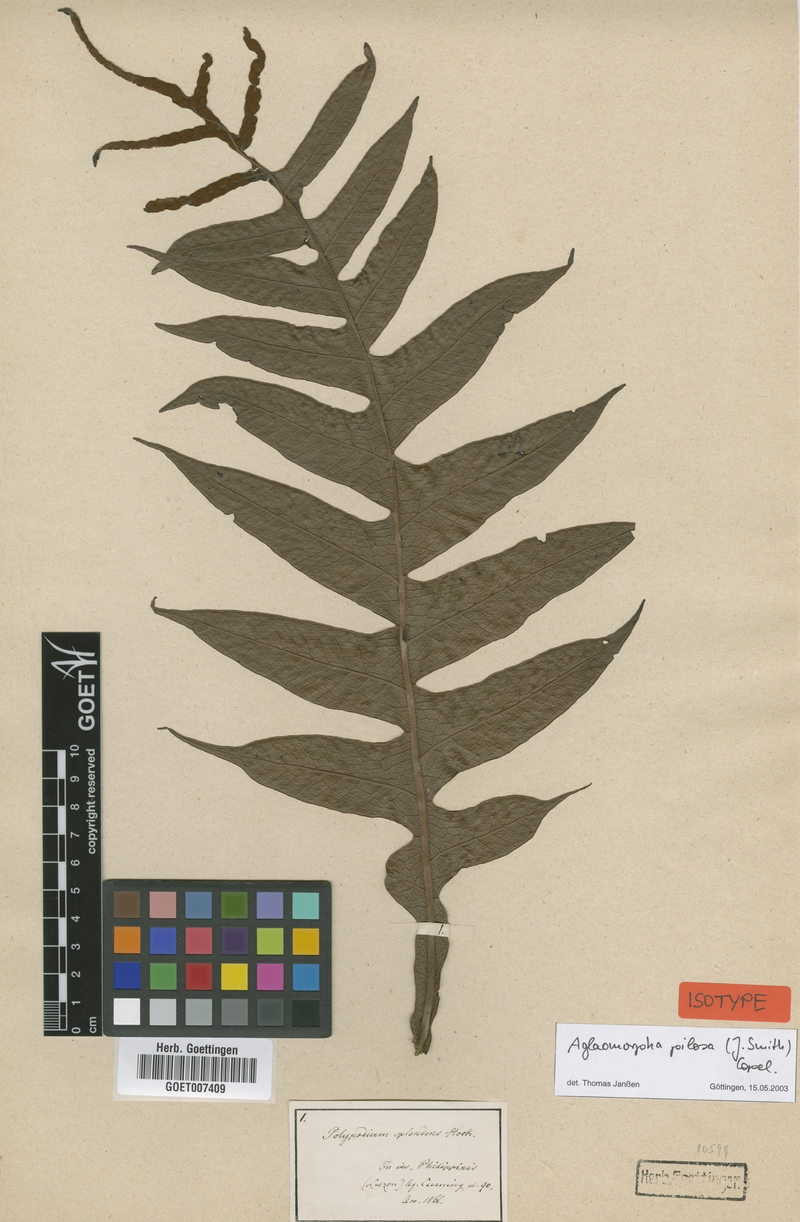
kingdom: Plantae
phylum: Tracheophyta
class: Polypodiopsida
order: Polypodiales
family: Polypodiaceae
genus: Drynaria
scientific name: Drynaria pilosa
